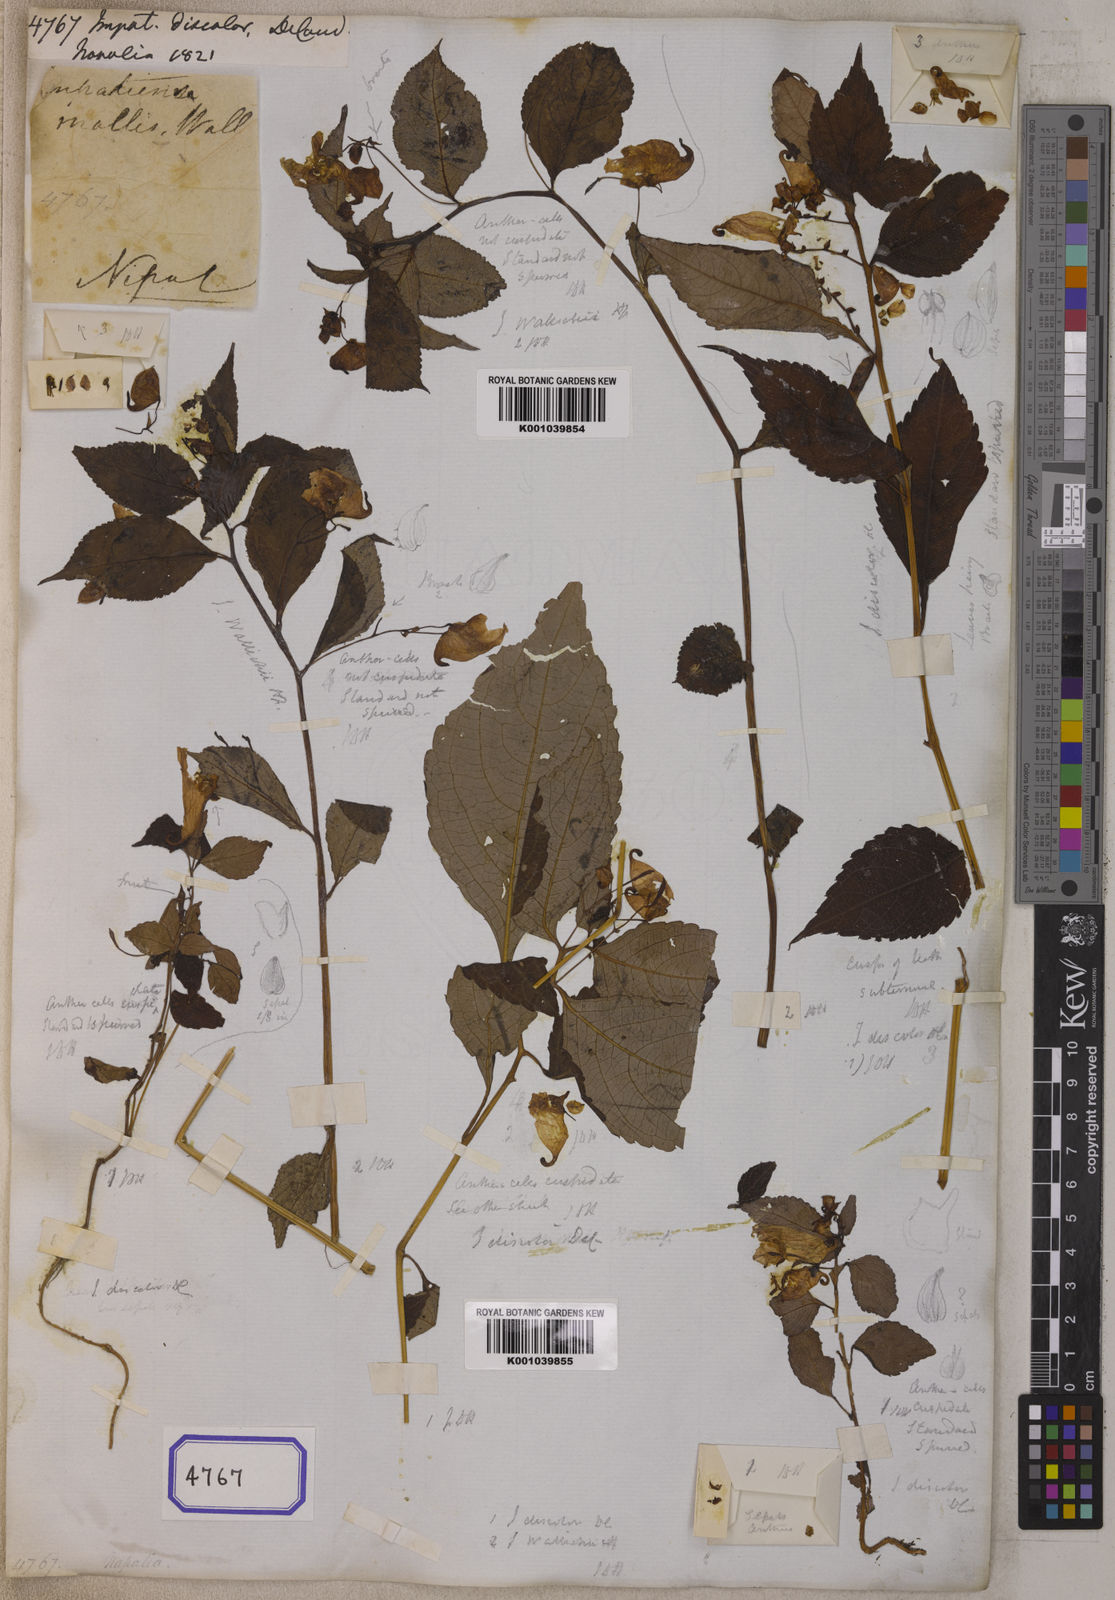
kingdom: Plantae
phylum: Tracheophyta
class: Magnoliopsida
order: Ericales
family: Balsaminaceae
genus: Impatiens
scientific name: Impatiens discolor
